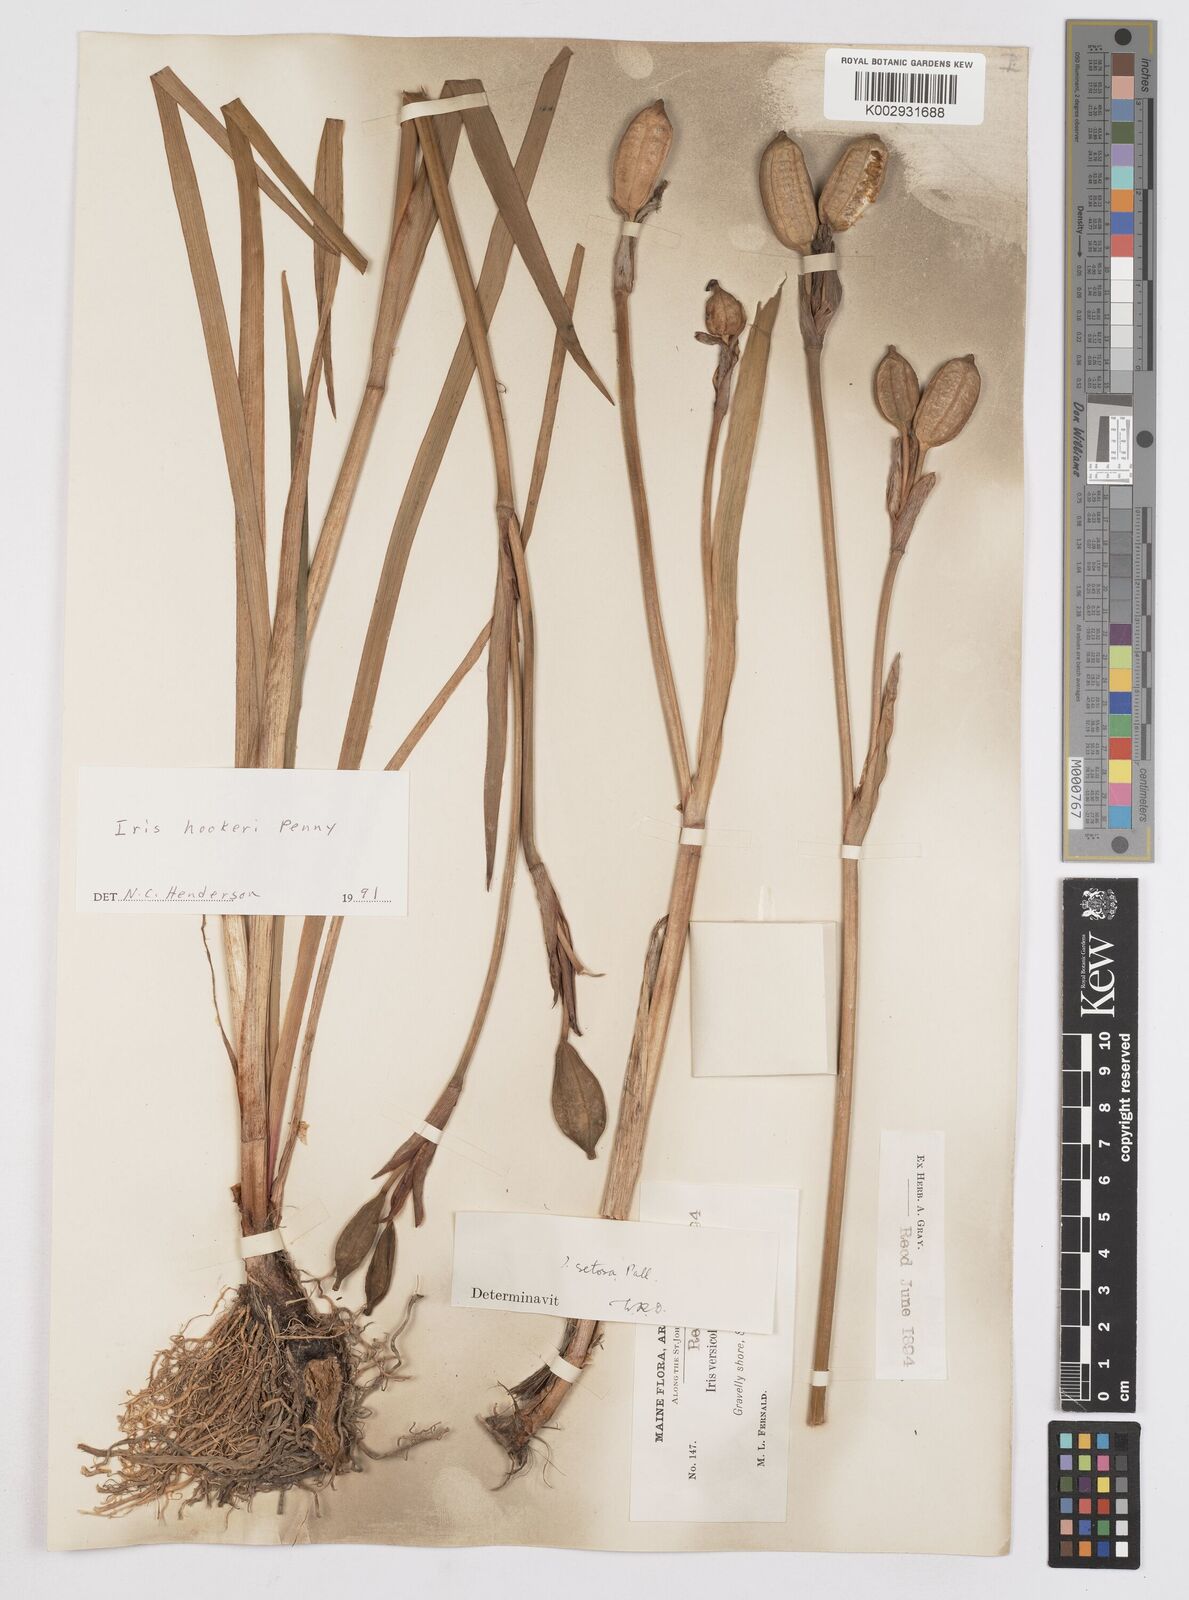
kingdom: Plantae
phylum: Tracheophyta
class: Liliopsida
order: Asparagales
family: Iridaceae
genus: Iris
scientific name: Iris setosa
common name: Arctic blue flag
